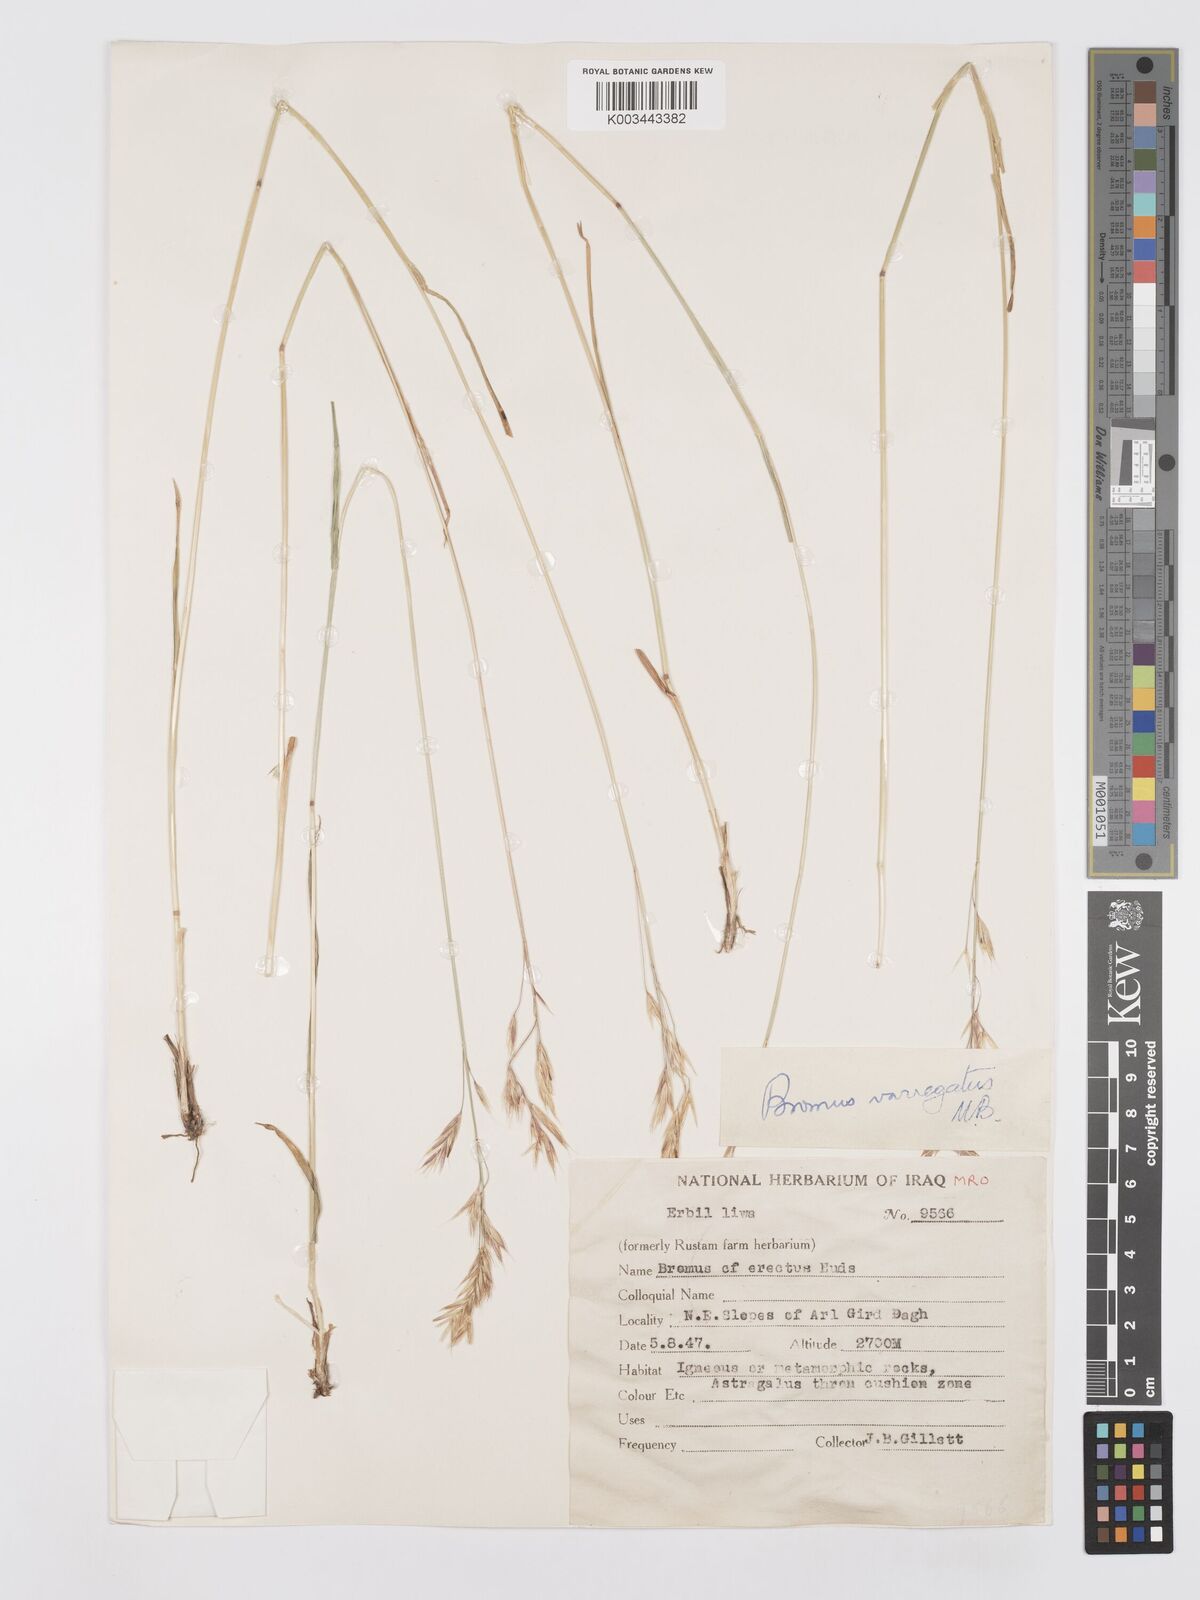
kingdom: Plantae
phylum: Tracheophyta
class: Liliopsida
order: Poales
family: Poaceae
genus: Bromus
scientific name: Bromus variegatus
